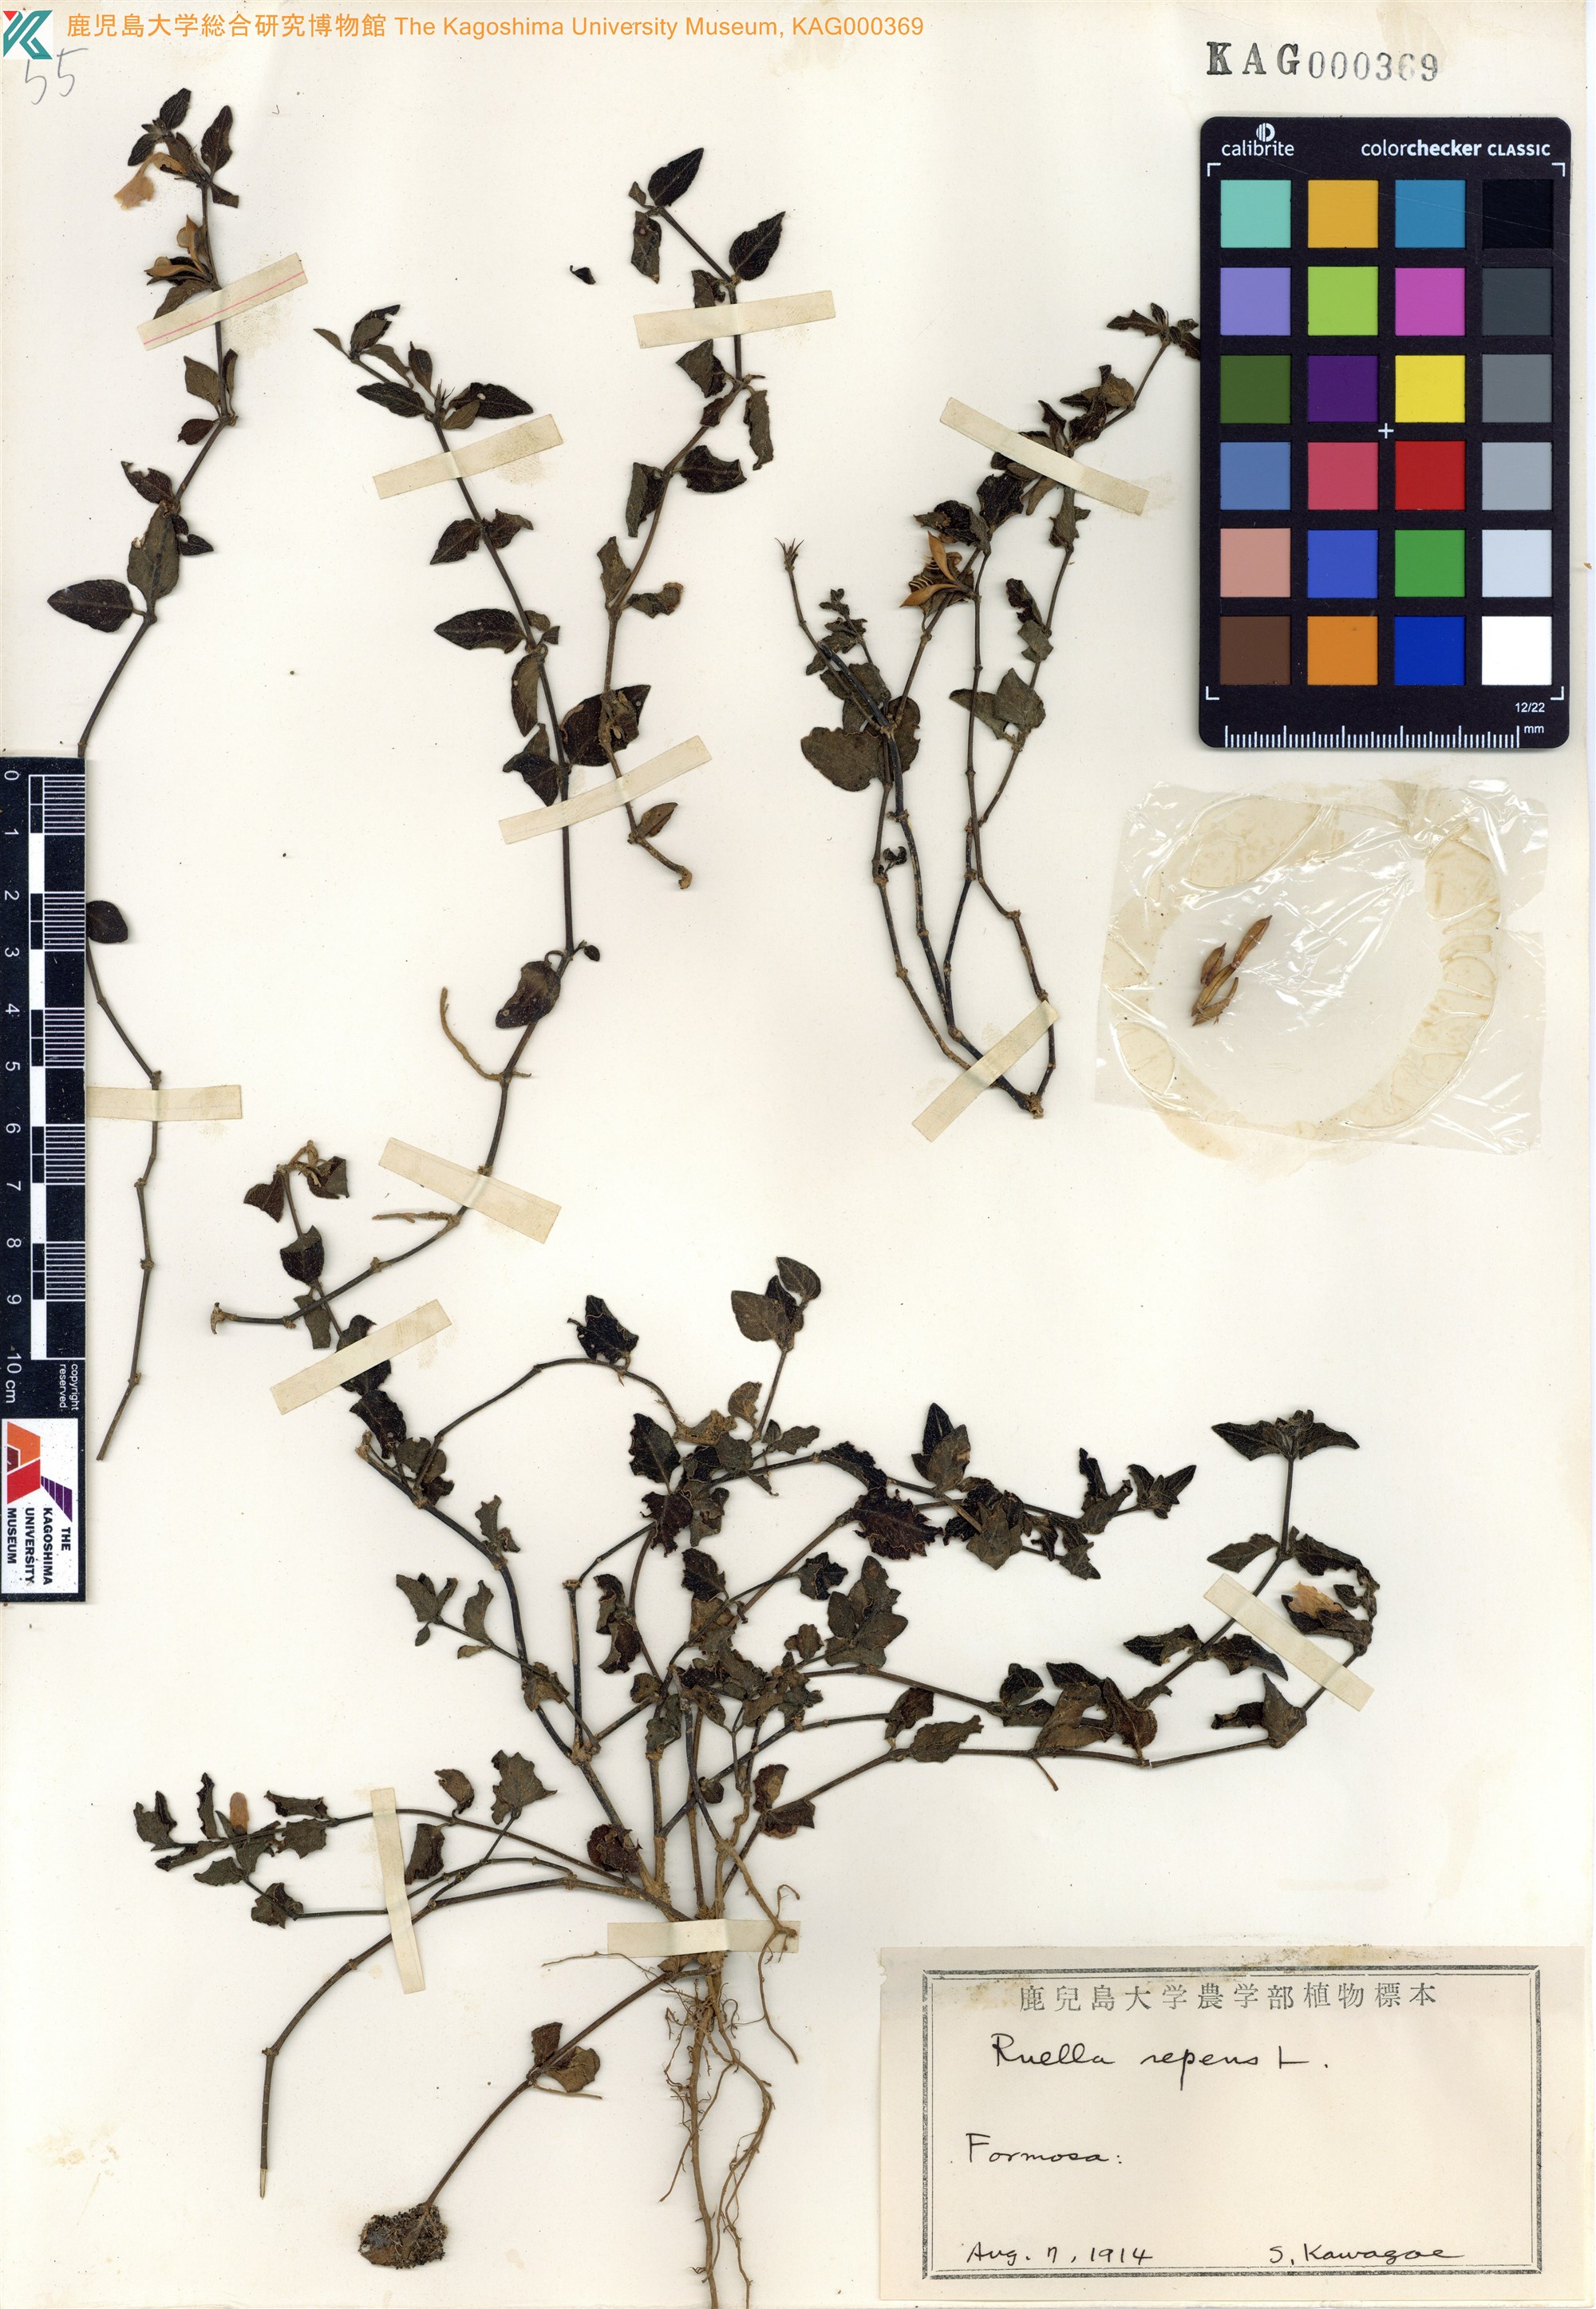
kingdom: Plantae
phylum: Tracheophyta
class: Magnoliopsida
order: Lamiales
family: Acanthaceae
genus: Ruellia
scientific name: Ruellia repens
